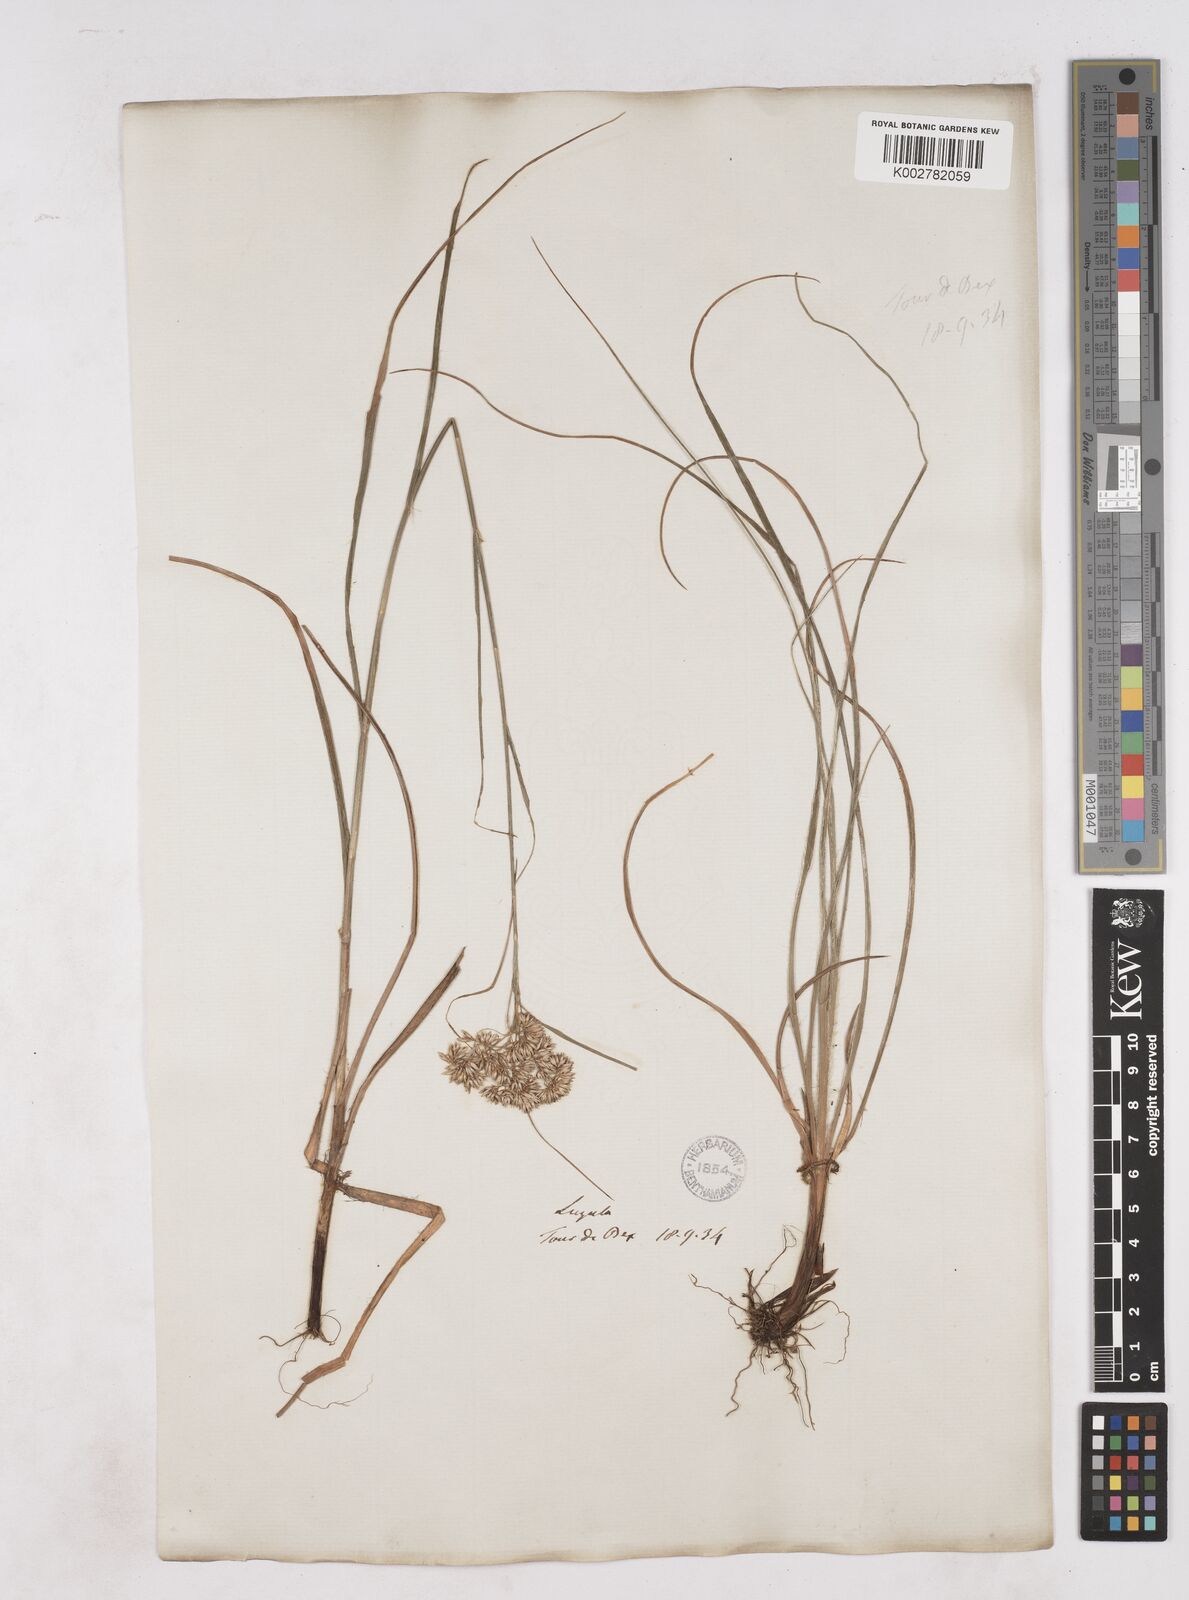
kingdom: Plantae
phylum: Tracheophyta
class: Liliopsida
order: Poales
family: Juncaceae
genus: Luzula
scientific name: Luzula nivea
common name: Snow-white wood-rush
